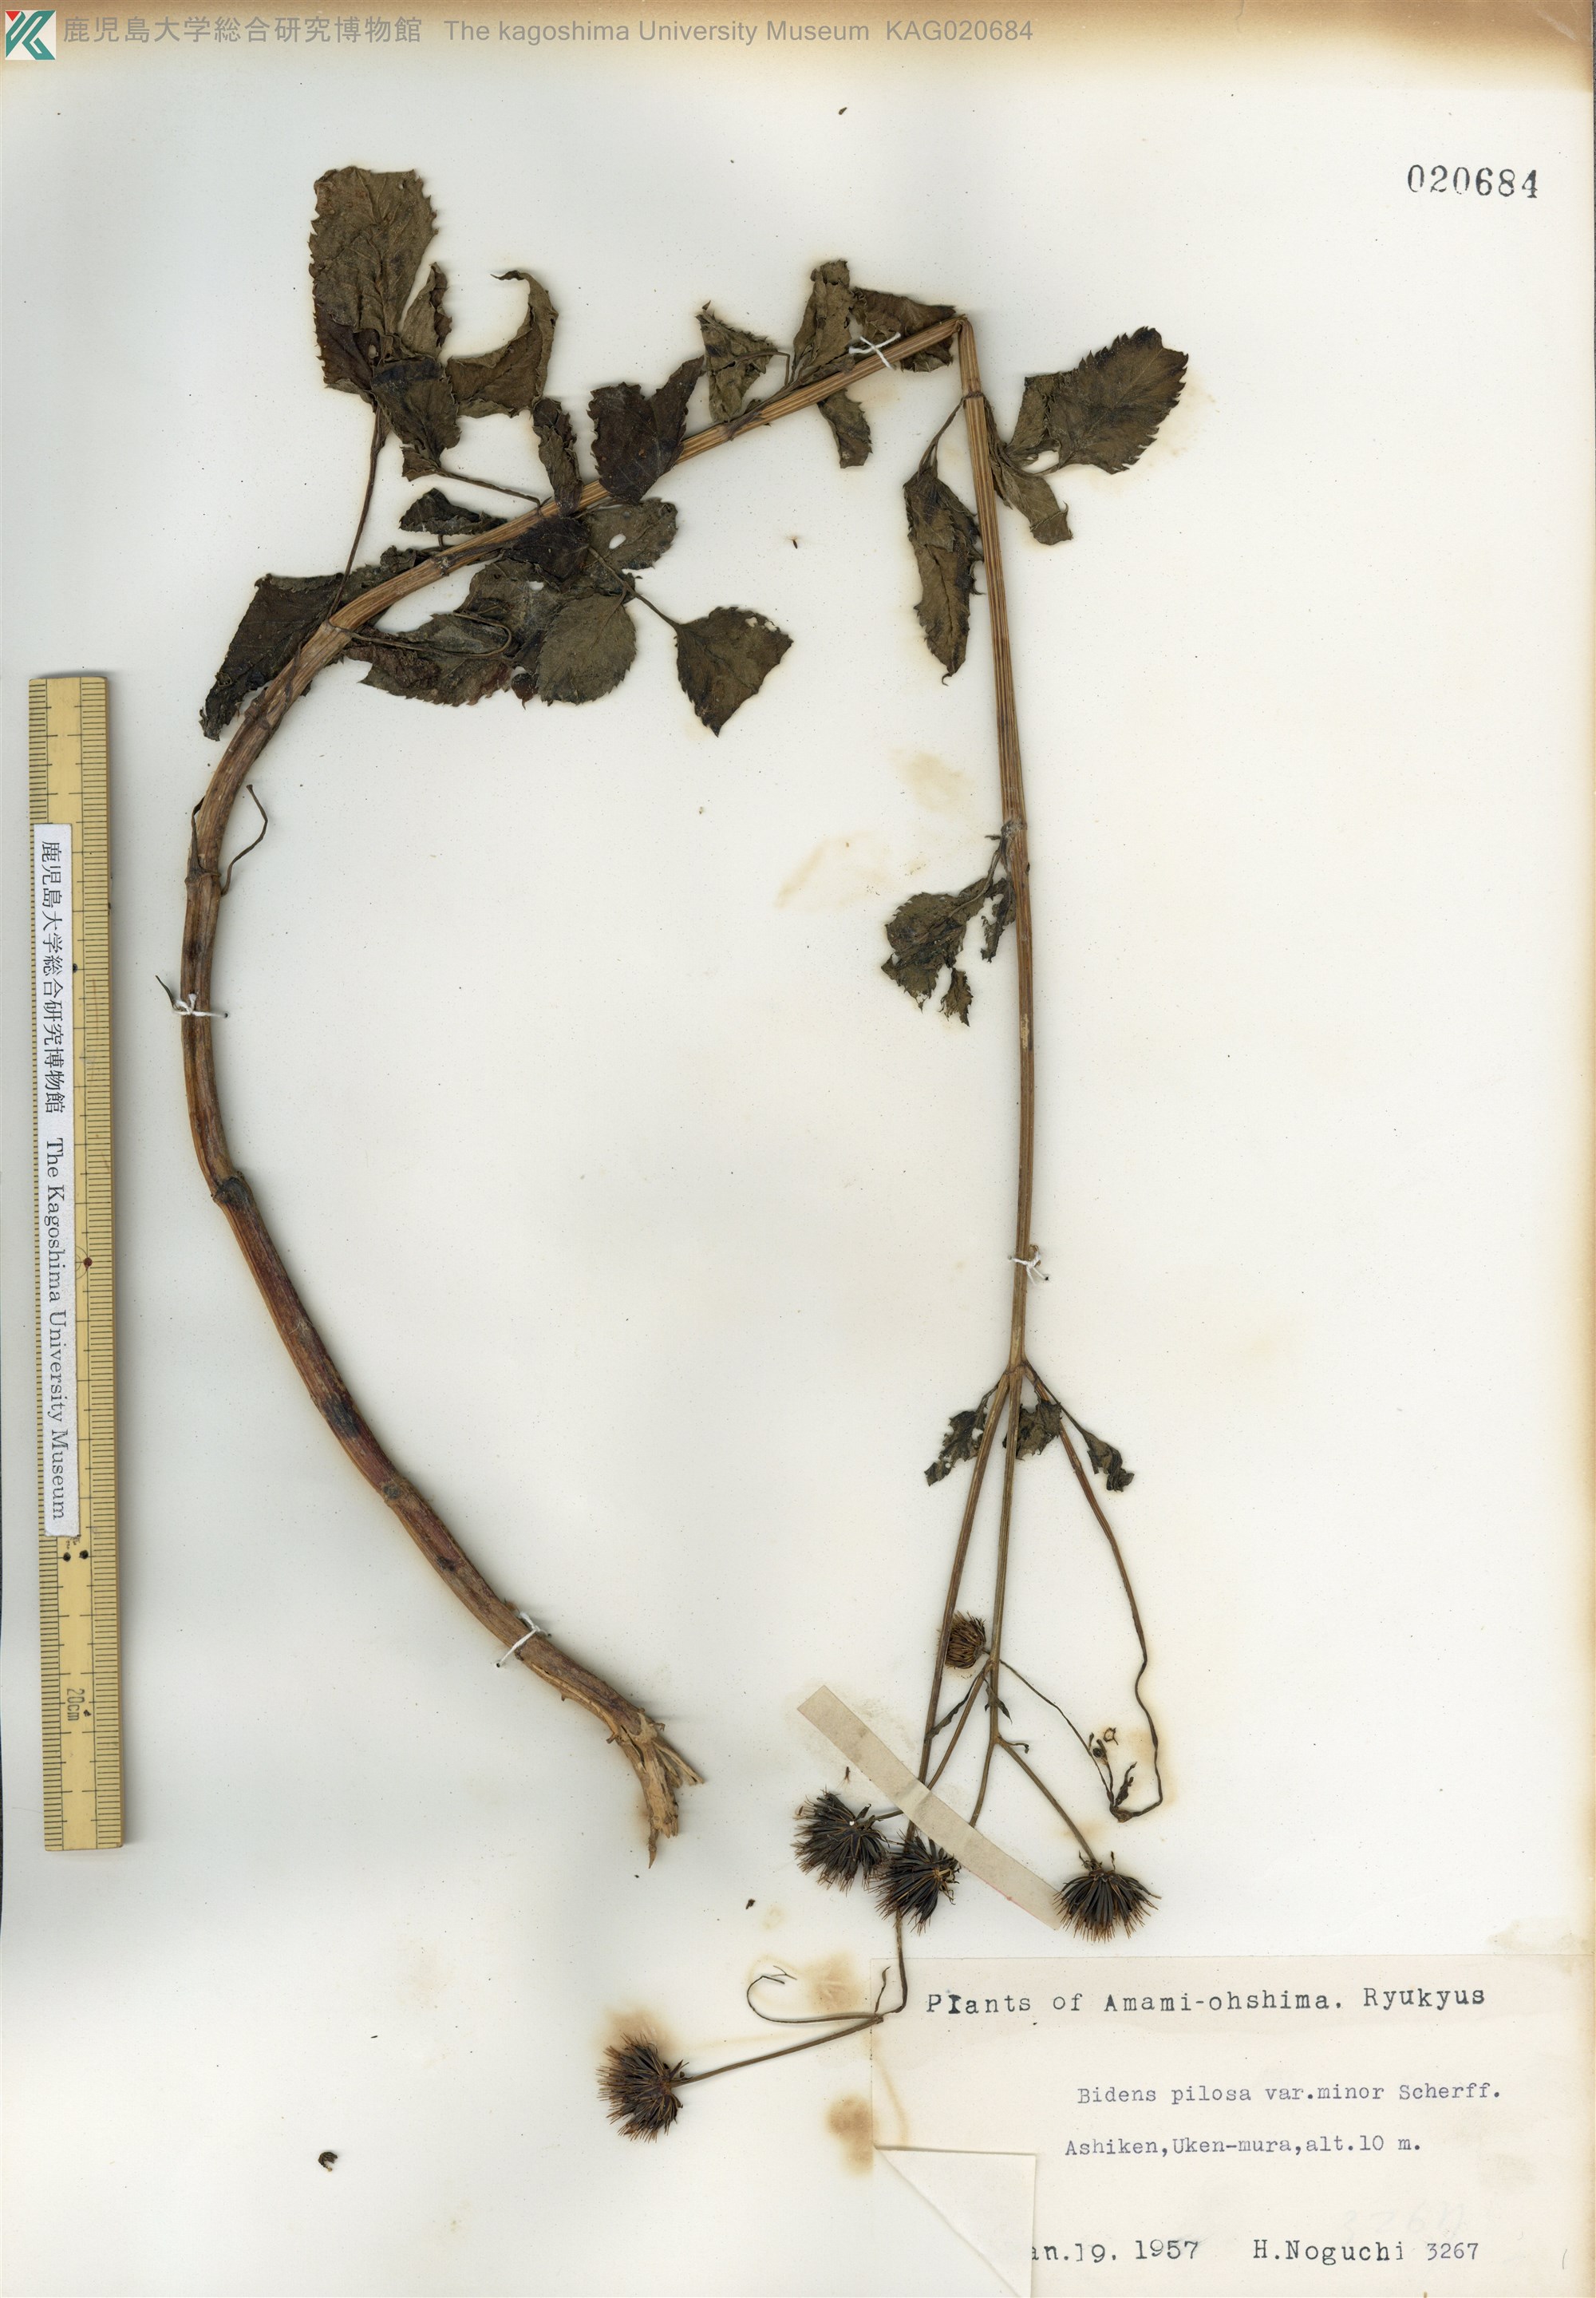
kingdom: Plantae
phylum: Tracheophyta
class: Magnoliopsida
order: Asterales
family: Asteraceae
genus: Bidens
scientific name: Bidens pilosa
